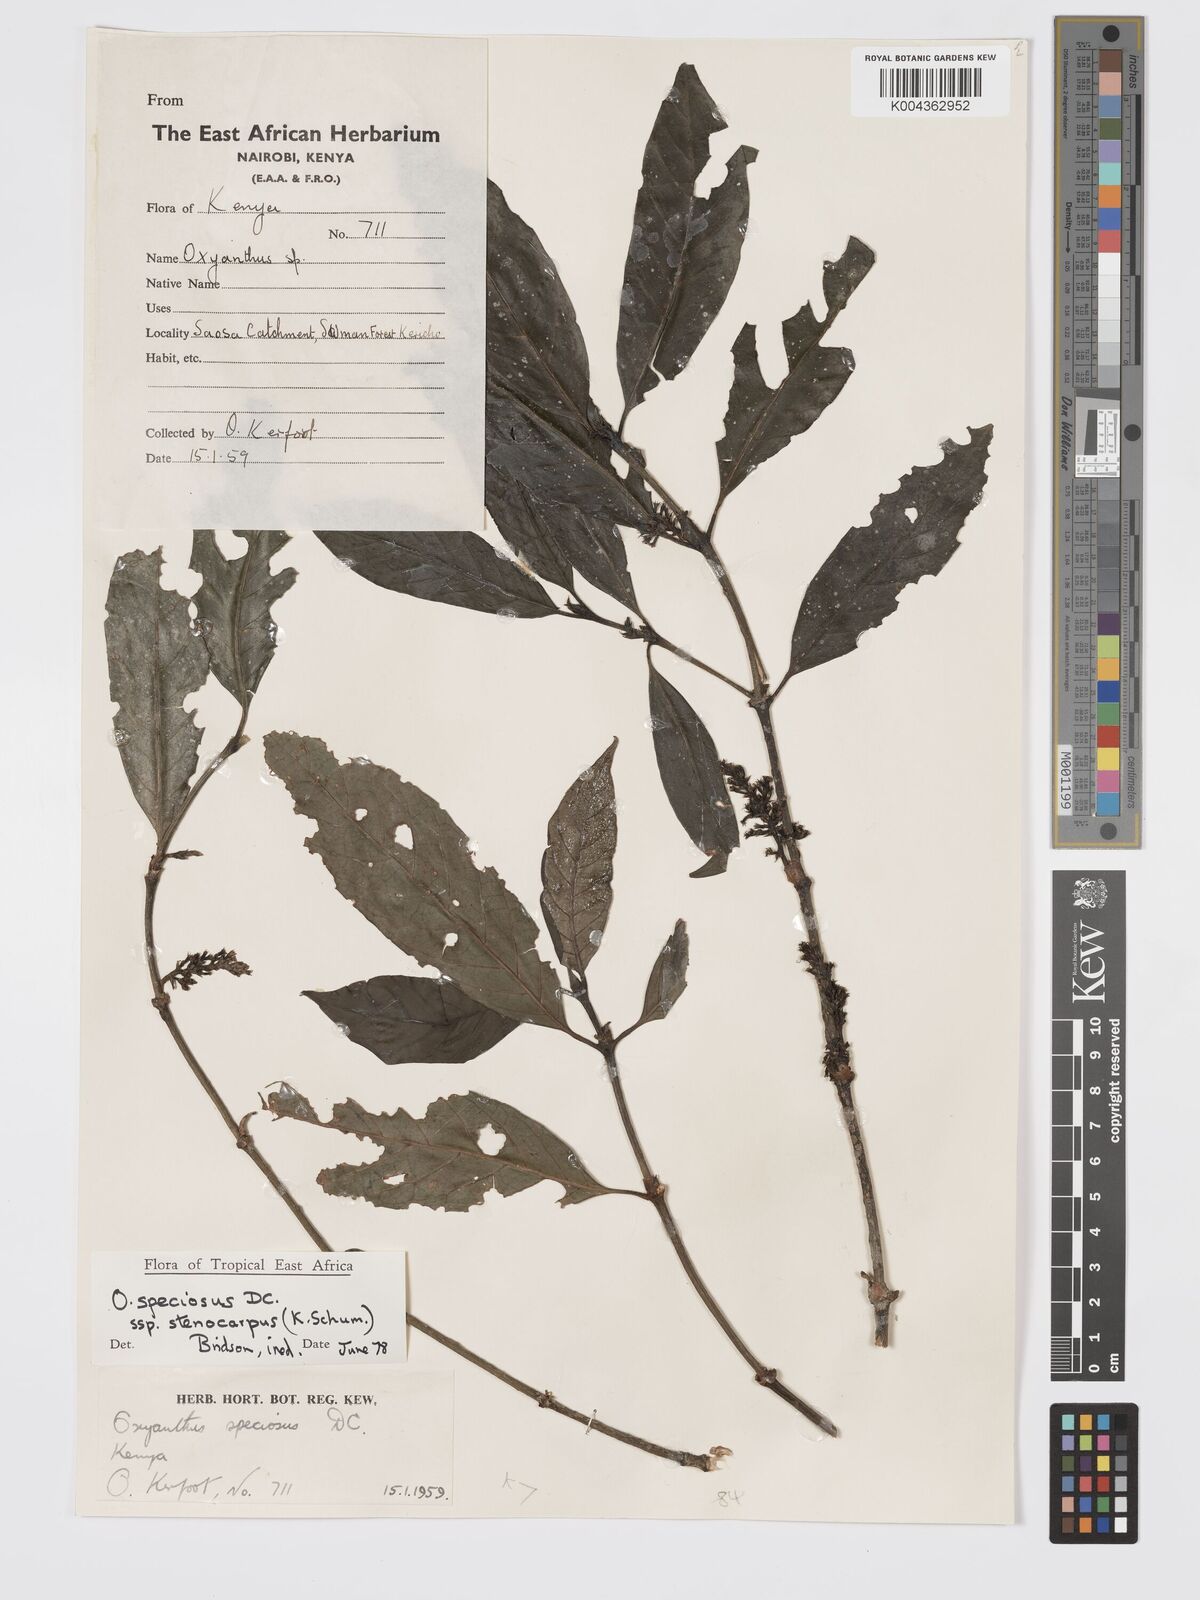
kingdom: Plantae
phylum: Tracheophyta
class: Magnoliopsida
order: Gentianales
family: Rubiaceae
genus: Oxyanthus
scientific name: Oxyanthus speciosus
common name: Whipstick loquat
